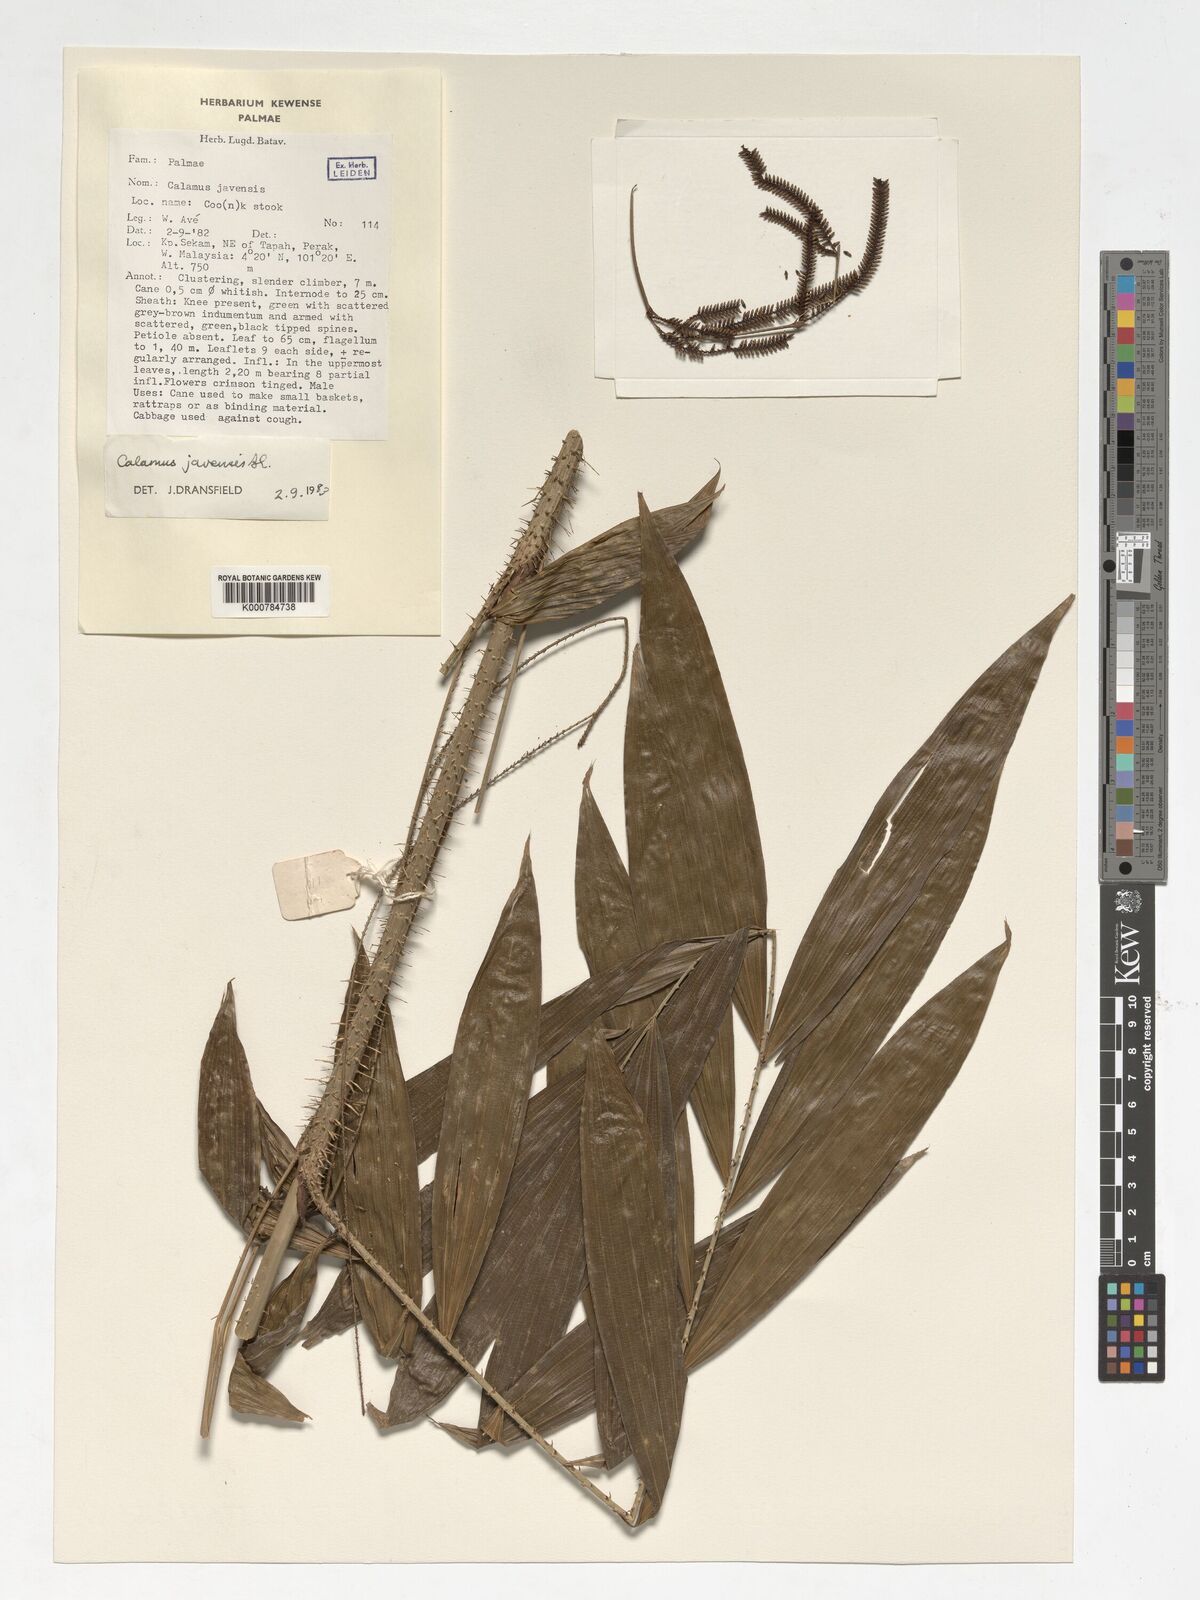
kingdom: Plantae
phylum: Tracheophyta
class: Liliopsida
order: Arecales
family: Arecaceae
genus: Calamus
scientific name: Calamus javensis
